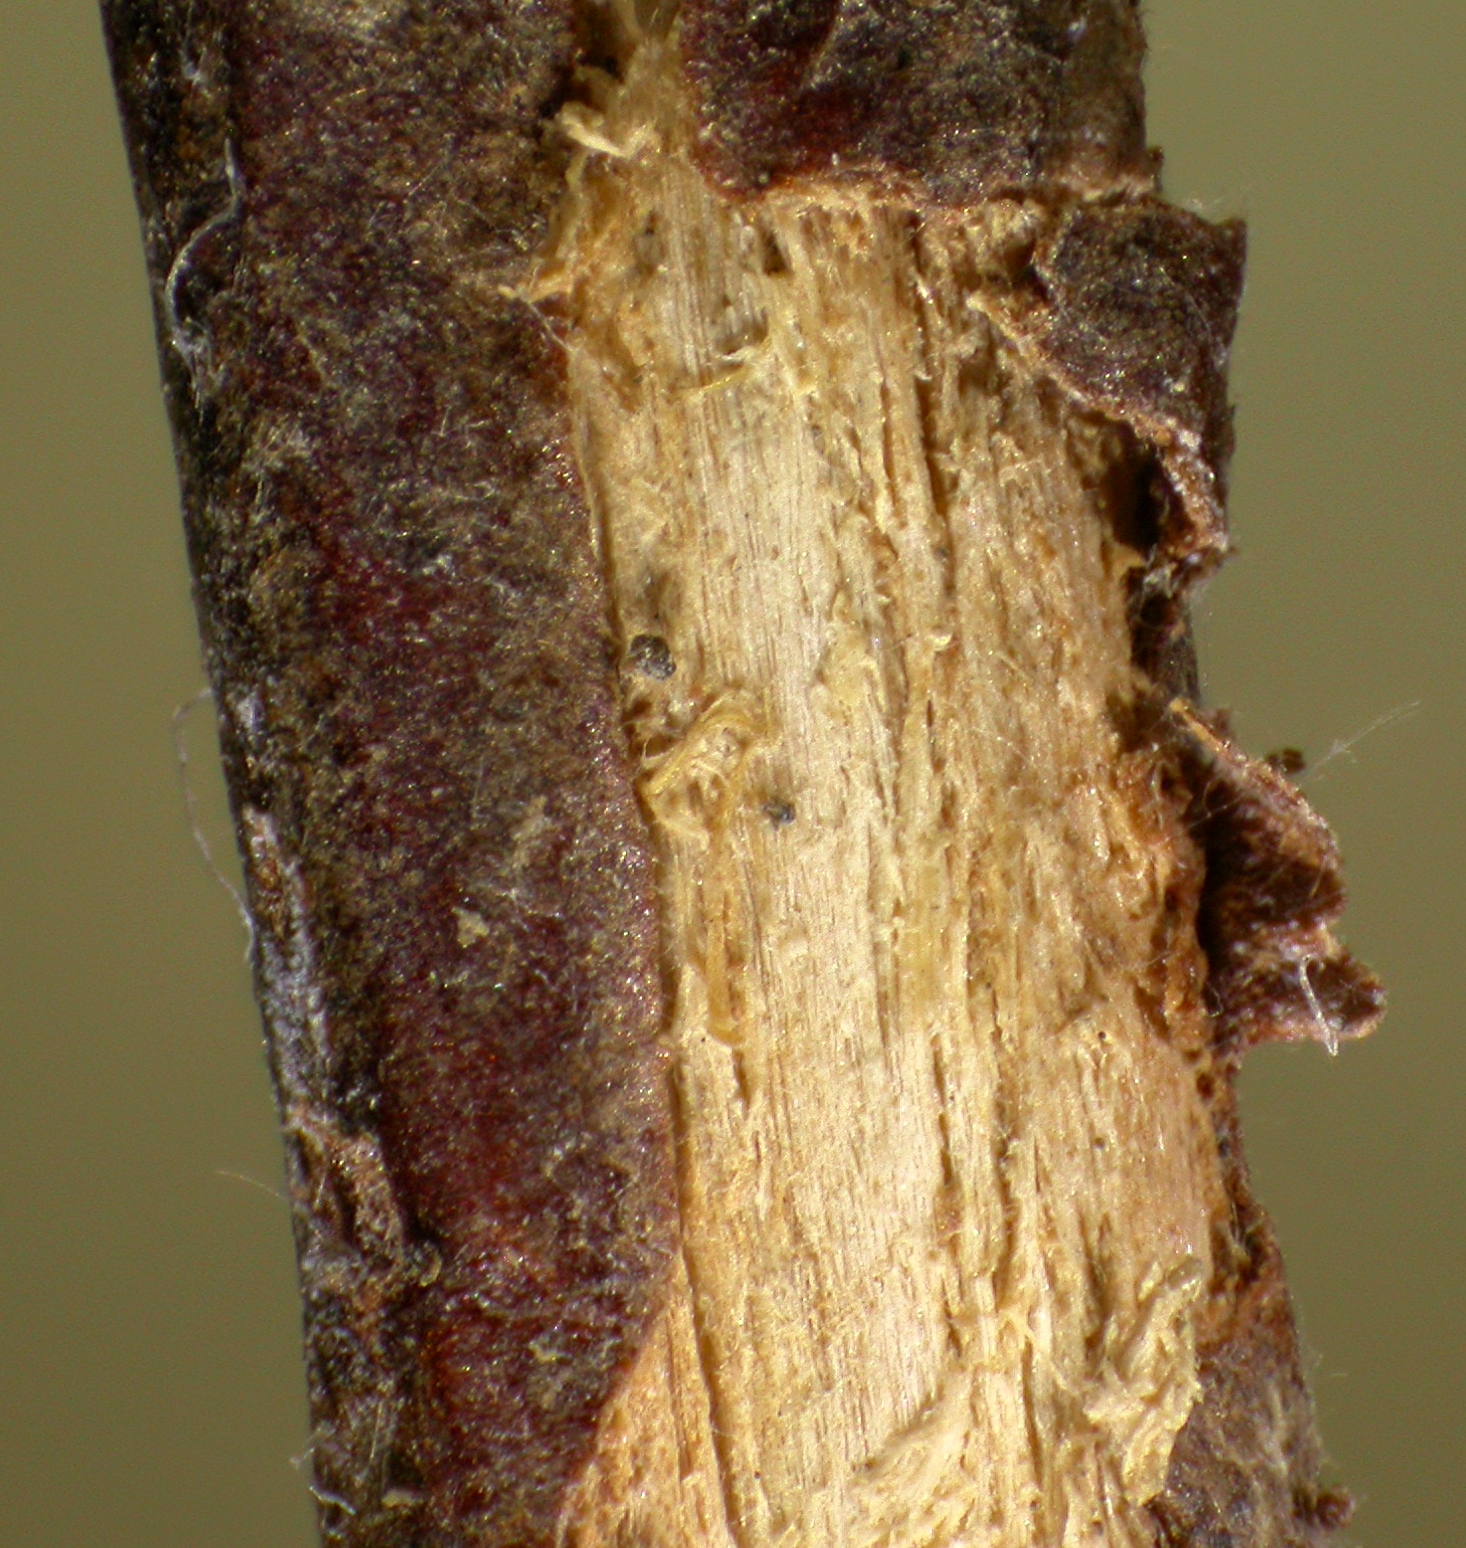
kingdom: Fungi
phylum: Ascomycota
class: Dothideomycetes
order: Mycosphaerellales
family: Mycosphaerellaceae
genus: Mycosphaerella
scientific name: Mycosphaerella sabinae
